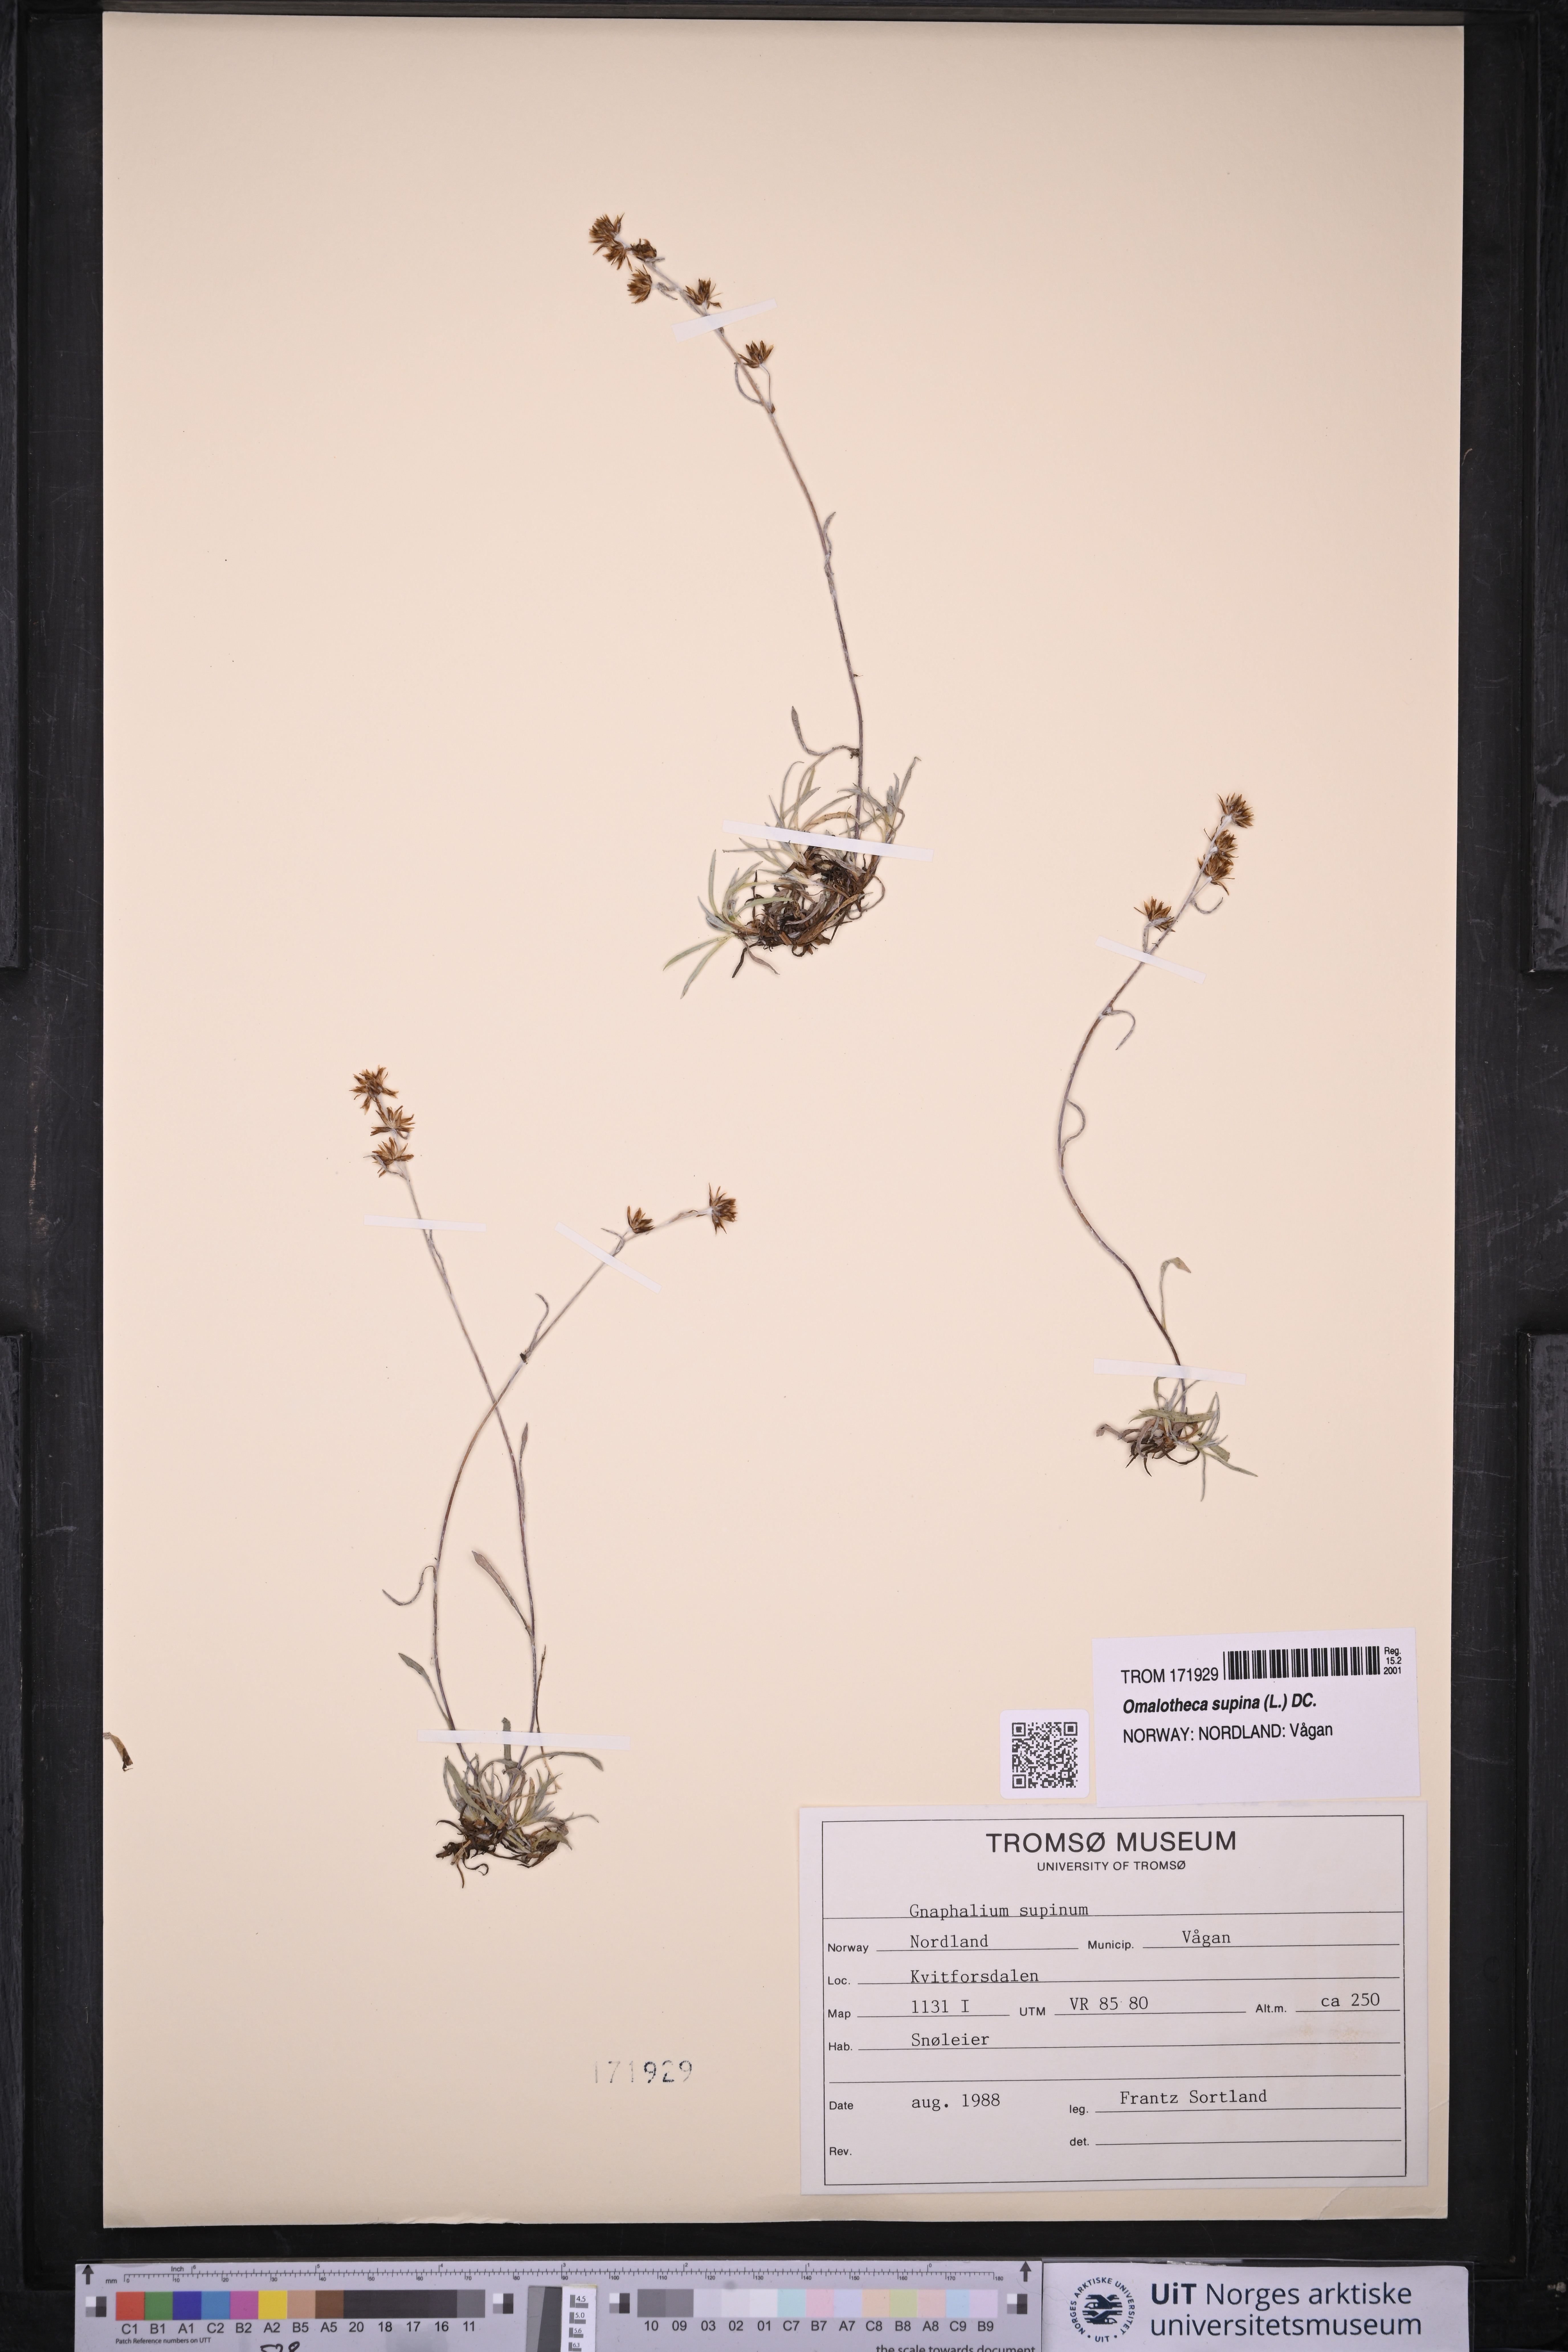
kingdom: Plantae
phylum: Tracheophyta
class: Magnoliopsida
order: Asterales
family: Asteraceae
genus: Omalotheca
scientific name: Omalotheca supina
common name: Alpine arctic-cudweed
